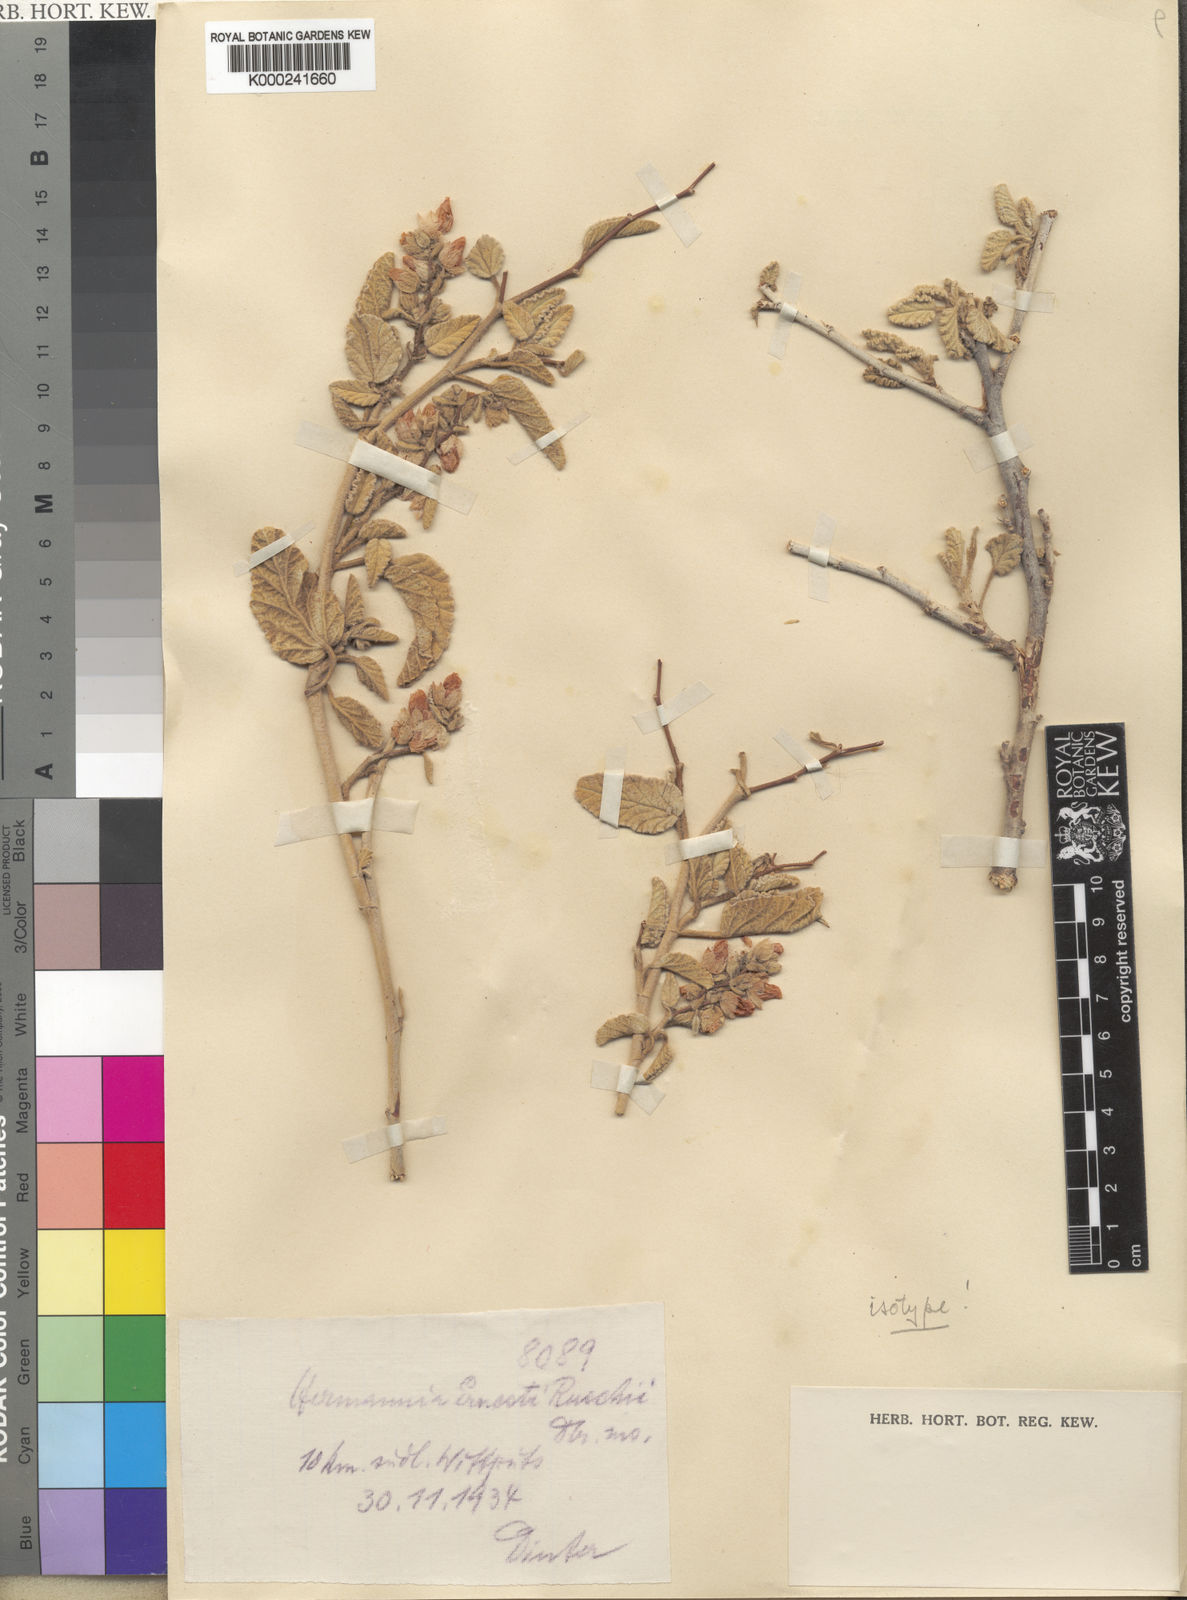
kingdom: Plantae
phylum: Tracheophyta
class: Magnoliopsida
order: Malvales
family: Malvaceae
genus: Hermannia
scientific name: Hermannia ernesti-ruschii
